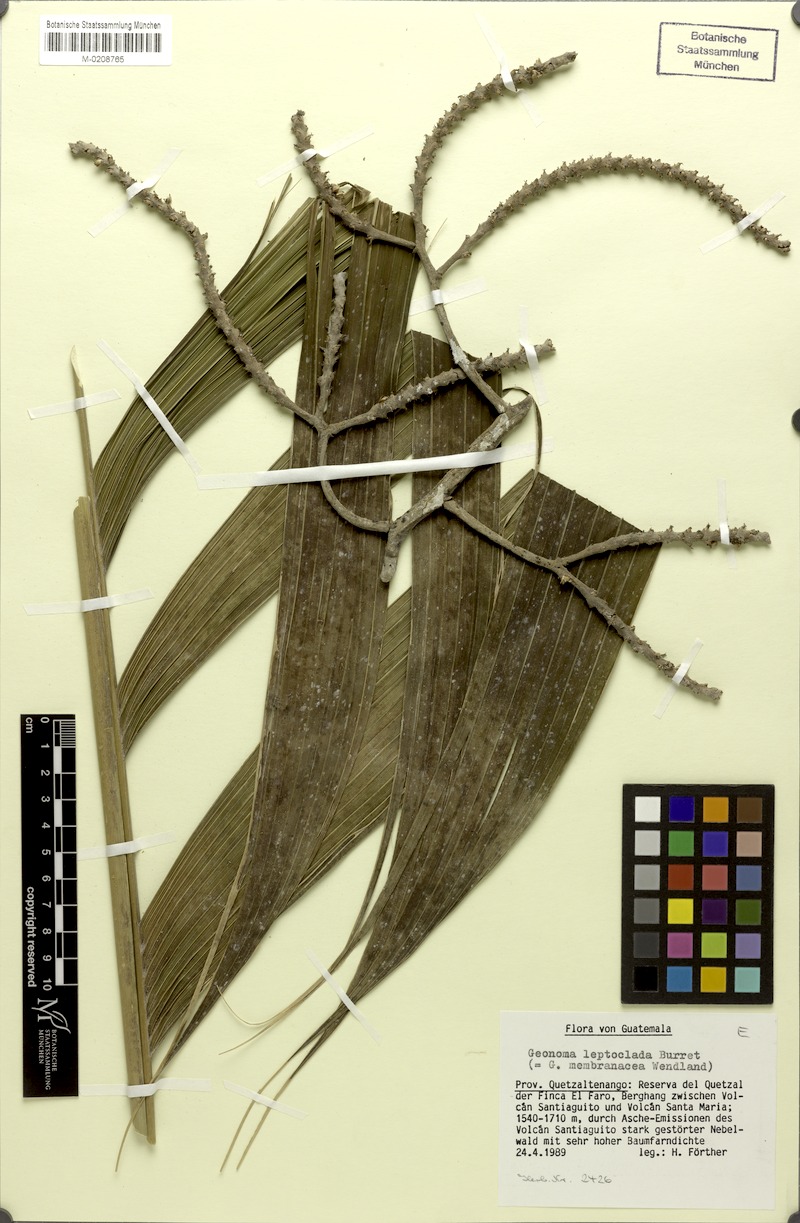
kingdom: Plantae
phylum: Tracheophyta
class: Liliopsida
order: Arecales
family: Arecaceae
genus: Geonoma
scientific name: Geonoma interrupta
